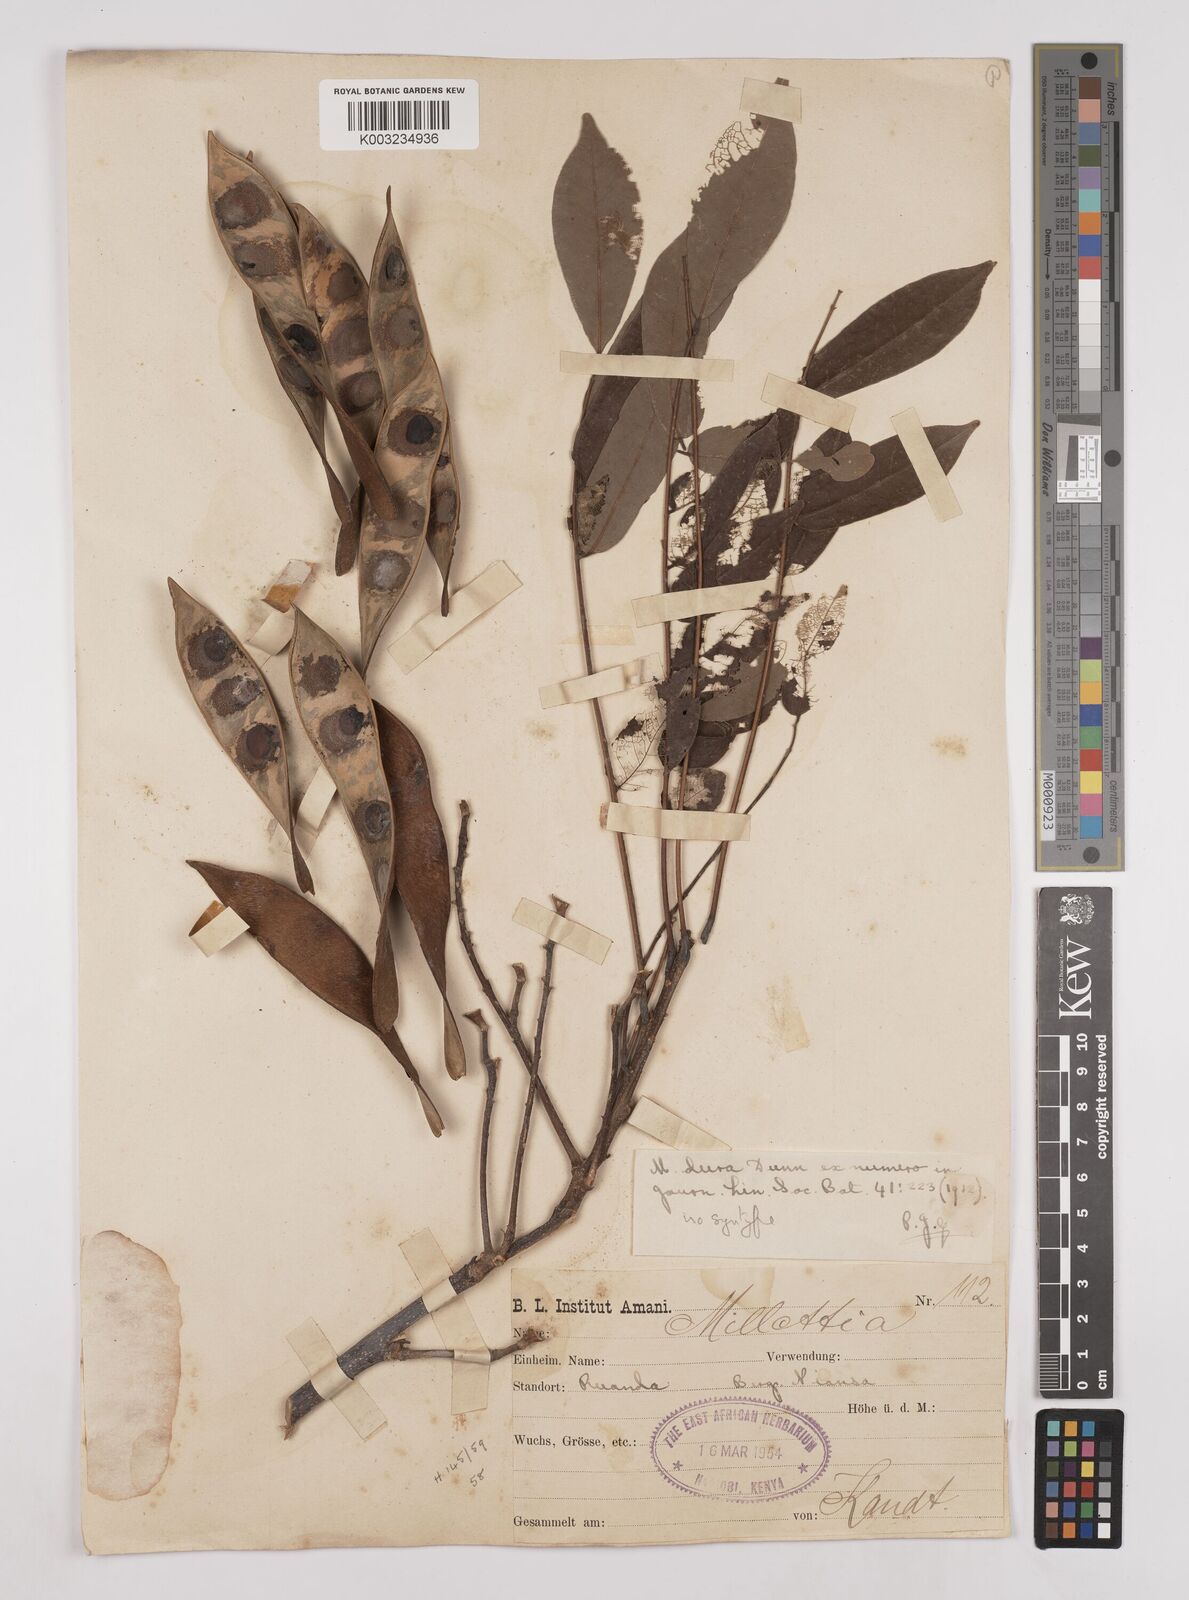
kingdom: Plantae
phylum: Tracheophyta
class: Magnoliopsida
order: Fabales
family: Fabaceae
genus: Millettia
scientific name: Millettia dura
